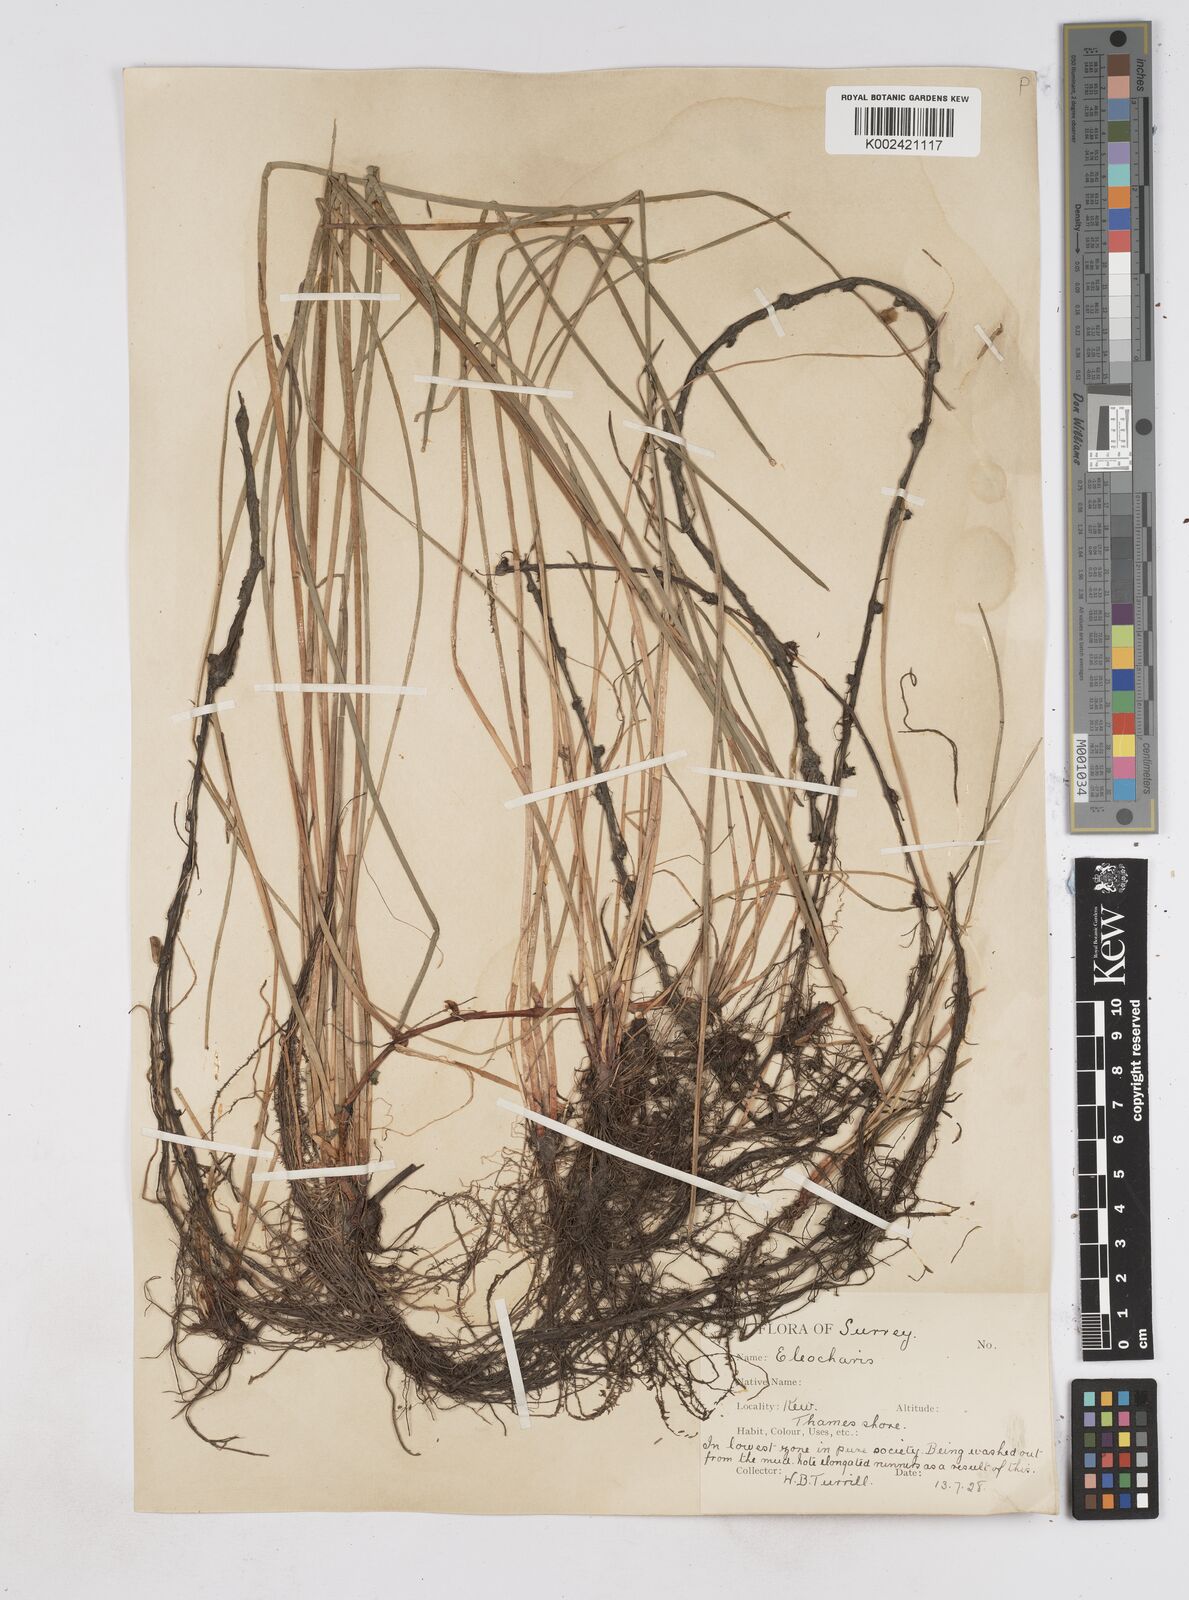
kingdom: Plantae
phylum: Tracheophyta
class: Liliopsida
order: Poales
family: Cyperaceae
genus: Eleocharis
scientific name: Eleocharis palustris
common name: Common spike-rush
